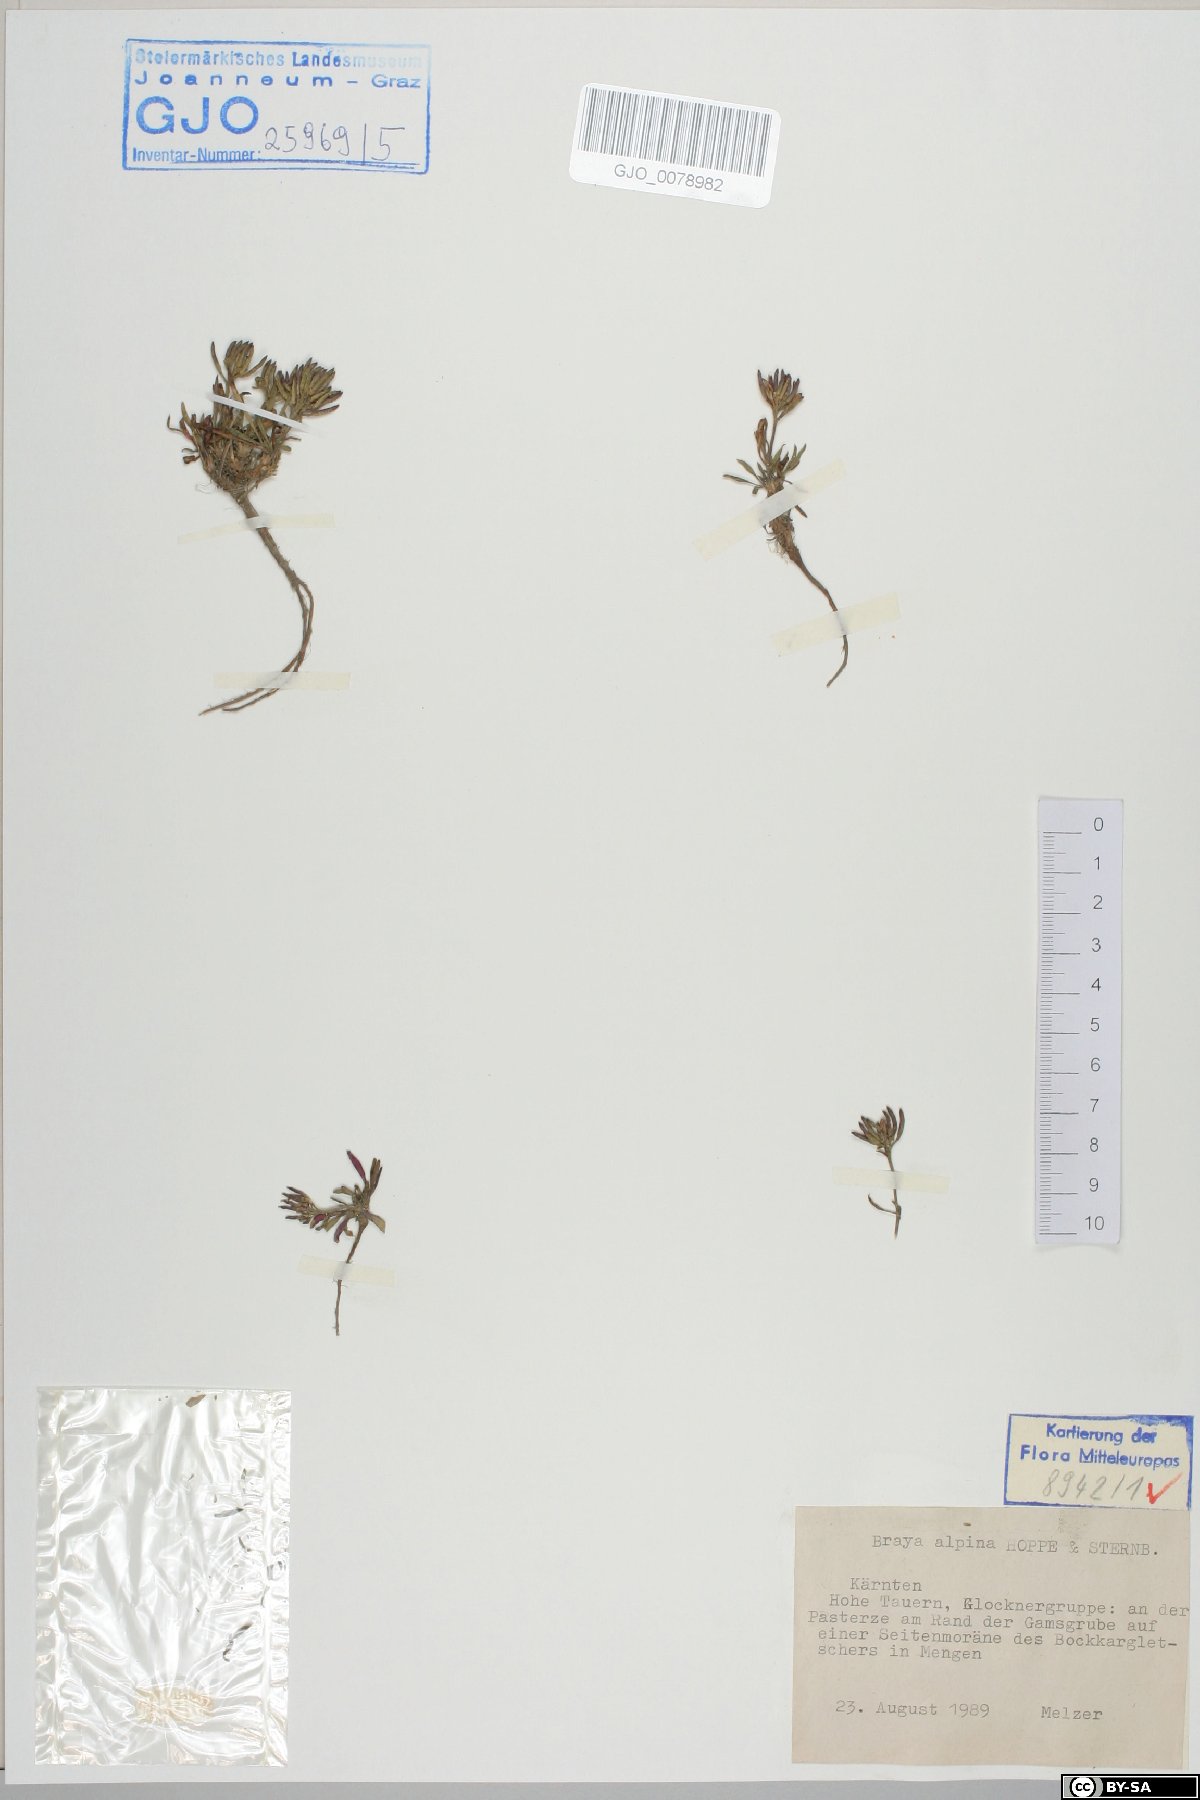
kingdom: Plantae
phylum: Tracheophyta
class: Magnoliopsida
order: Brassicales
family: Brassicaceae
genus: Braya
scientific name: Braya alpina
